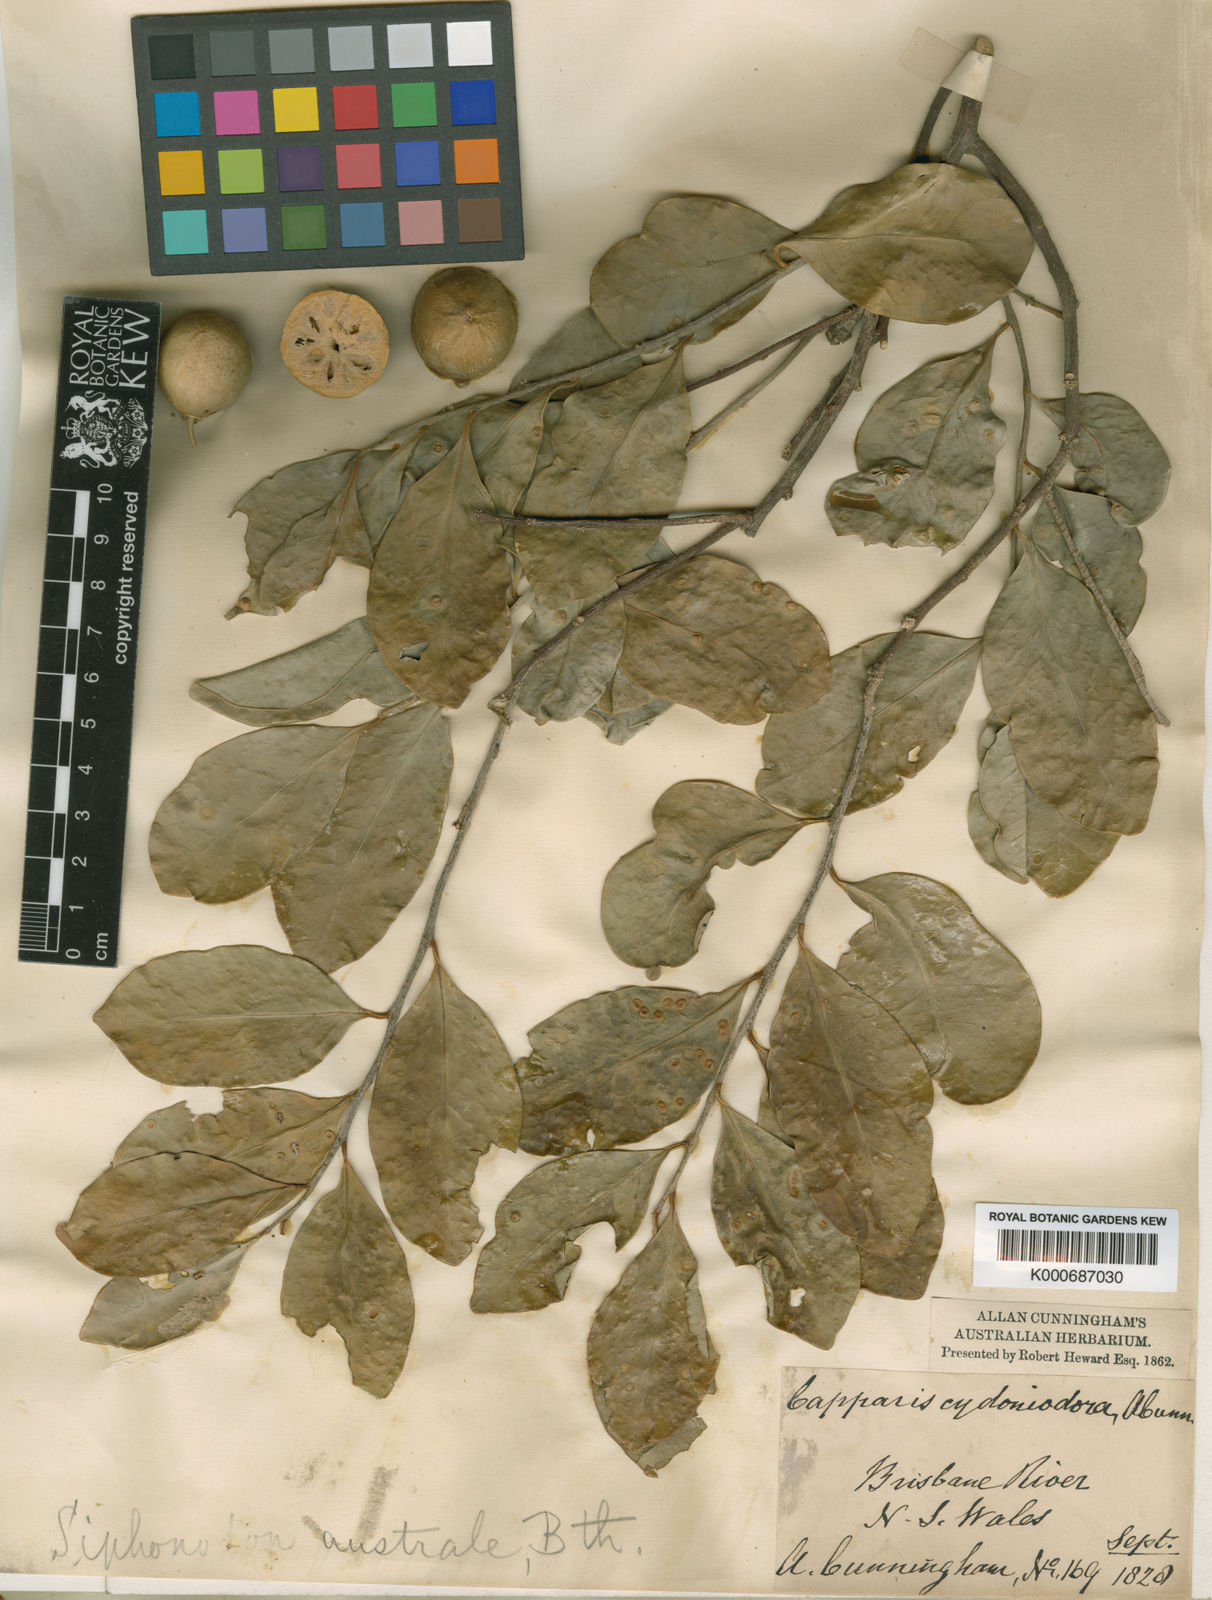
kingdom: Plantae
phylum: Tracheophyta
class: Magnoliopsida
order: Celastrales
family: Celastraceae
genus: Siphonodon
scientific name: Siphonodon australis
